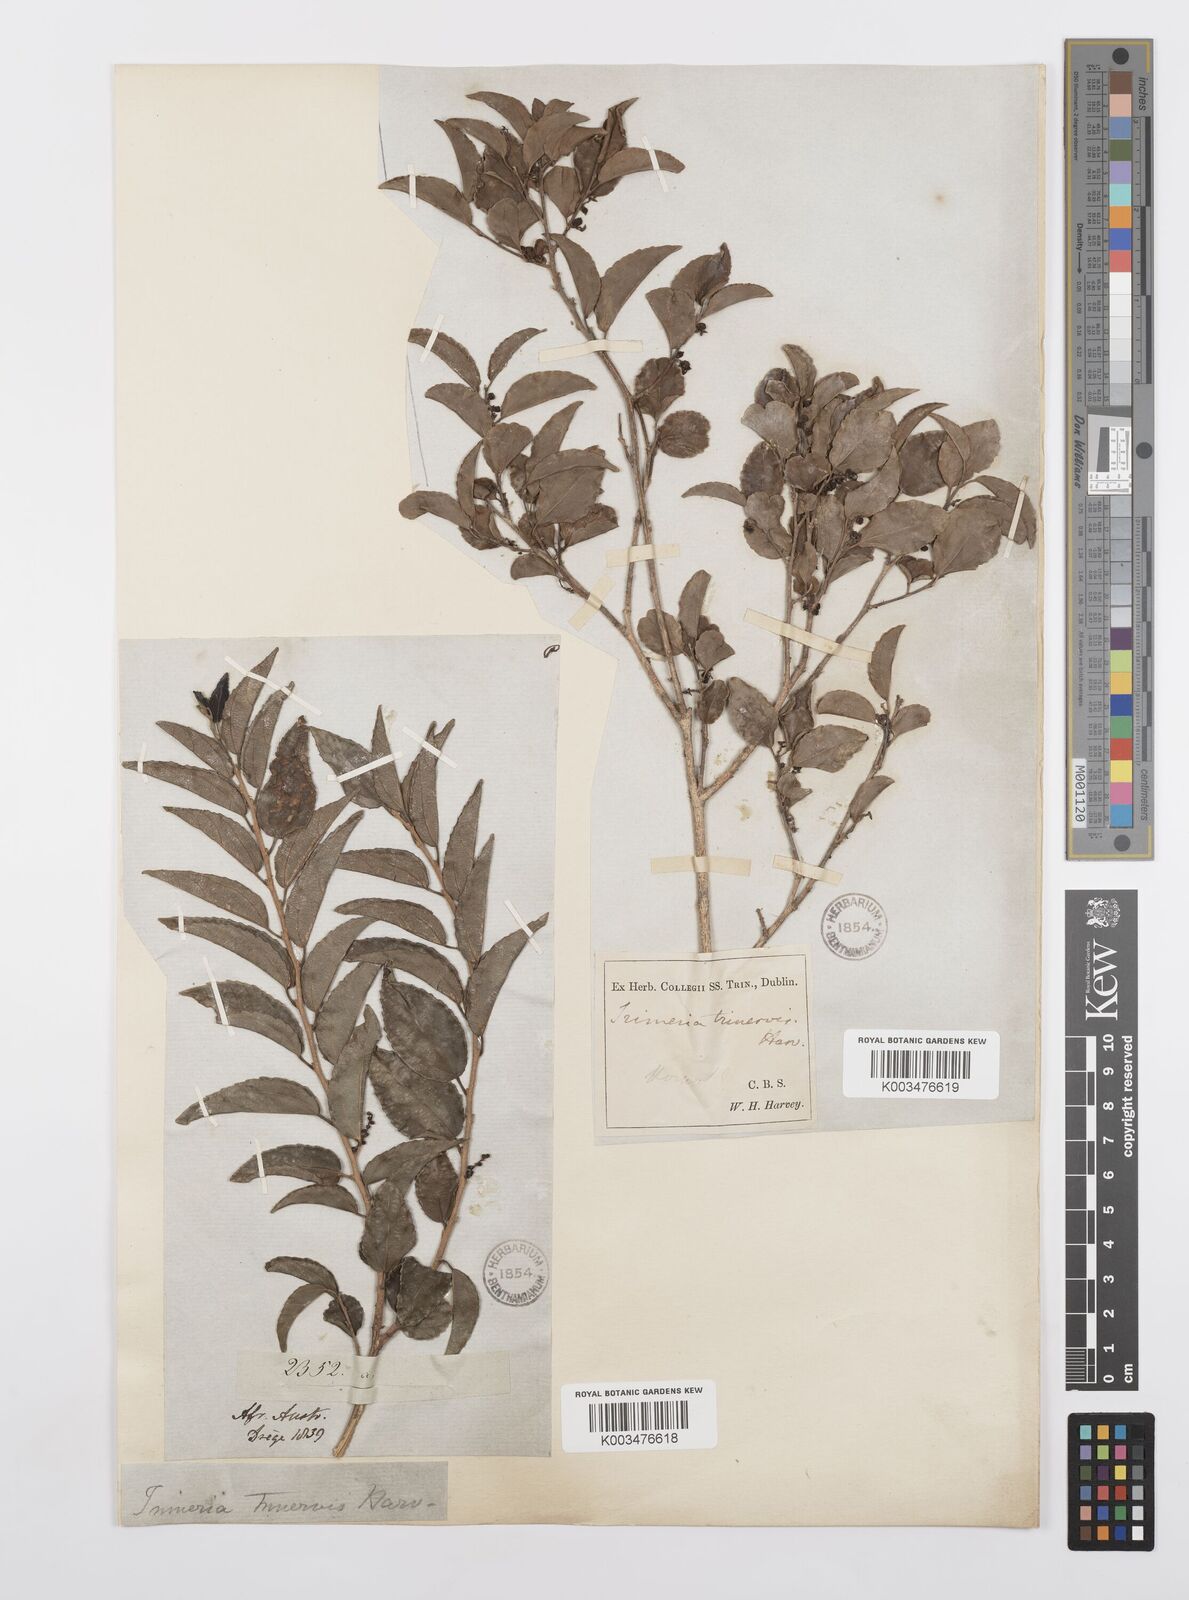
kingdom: Plantae
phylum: Tracheophyta
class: Magnoliopsida
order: Malpighiales
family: Salicaceae
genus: Trimeria
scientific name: Trimeria trinervis
